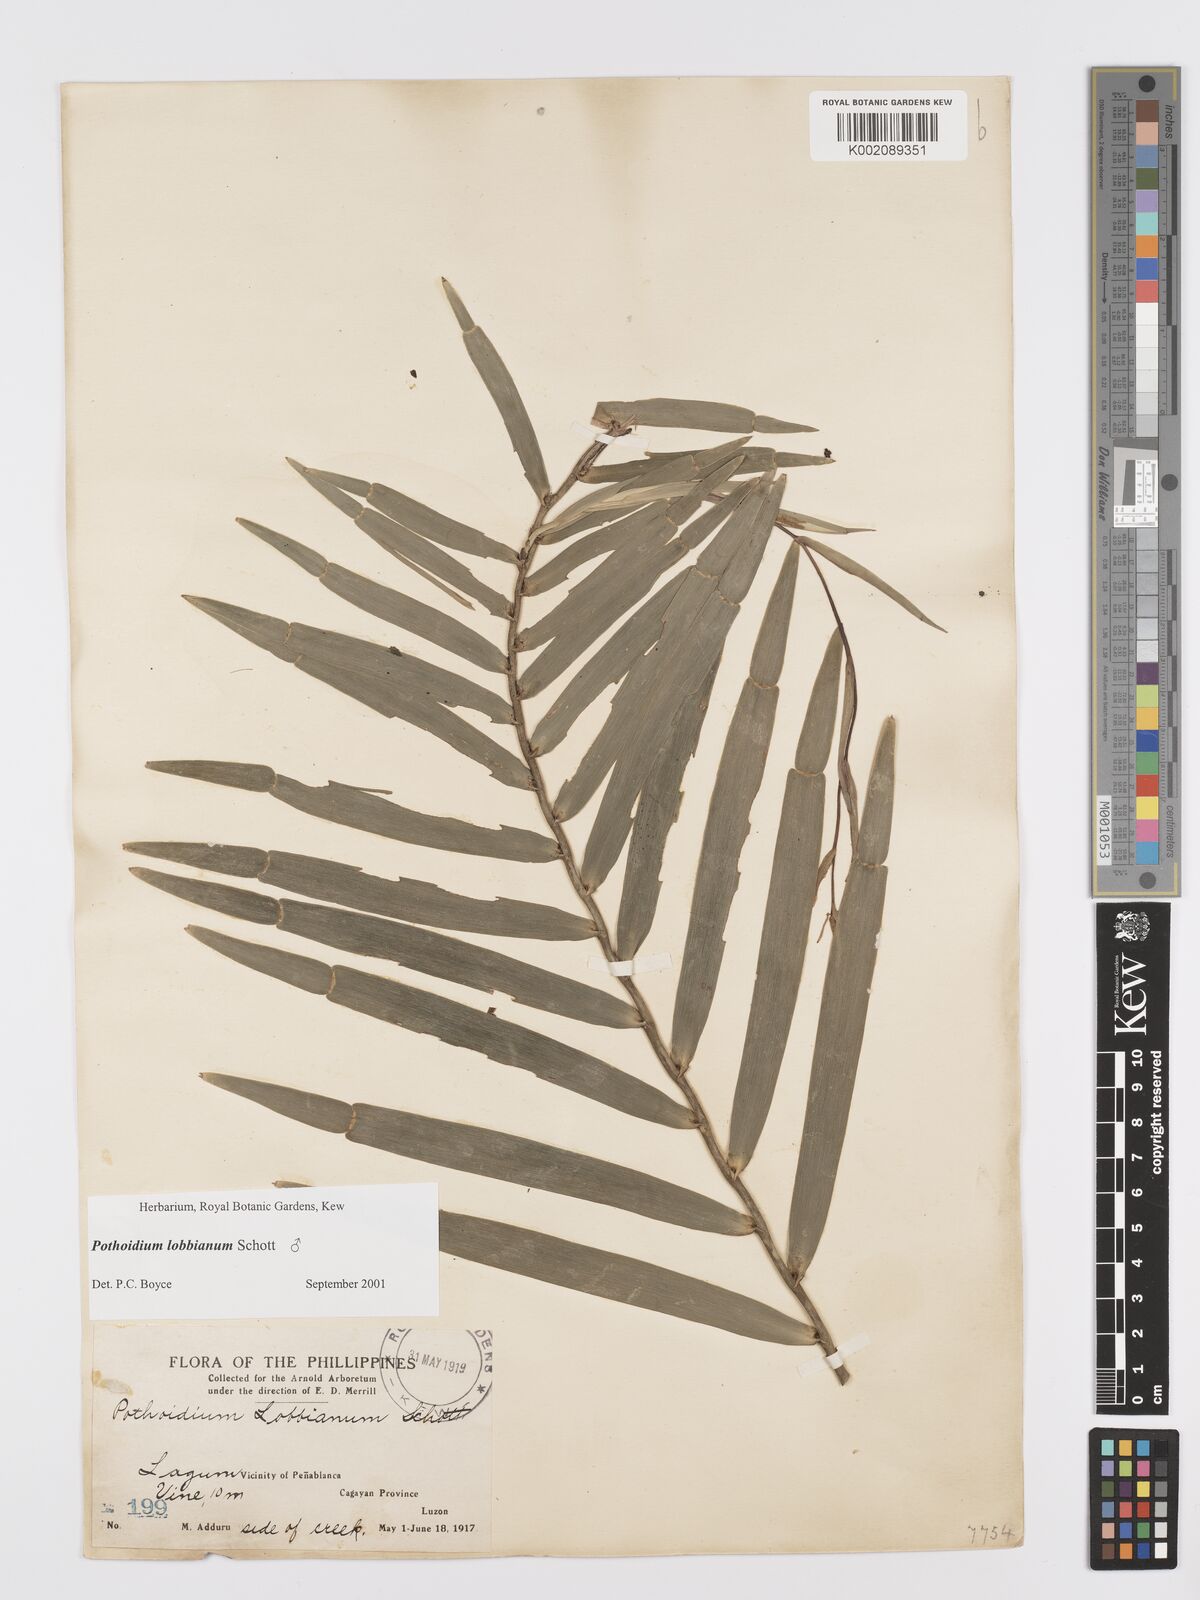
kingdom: Plantae
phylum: Tracheophyta
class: Liliopsida
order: Alismatales
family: Araceae
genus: Pothoidium
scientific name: Pothoidium lobbianum
